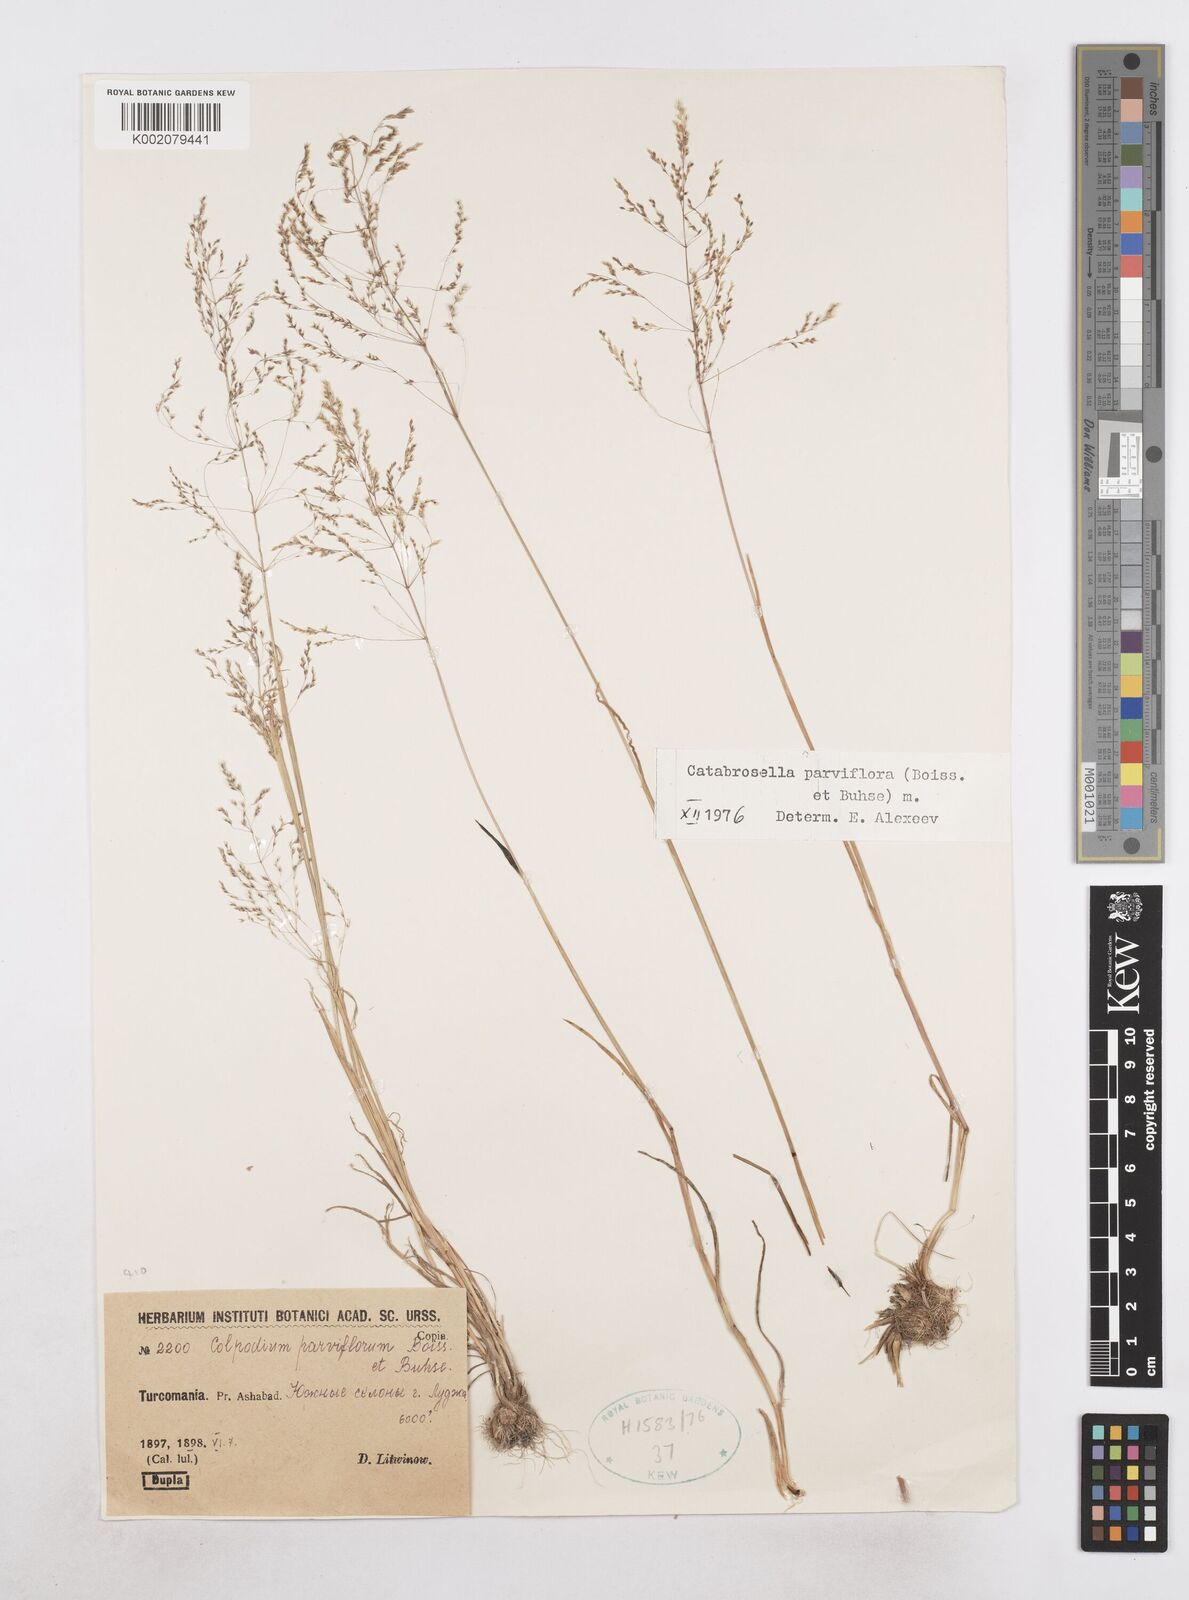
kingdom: Plantae
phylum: Tracheophyta
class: Liliopsida
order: Poales
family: Poaceae
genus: Catabrosella
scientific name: Catabrosella humilis
